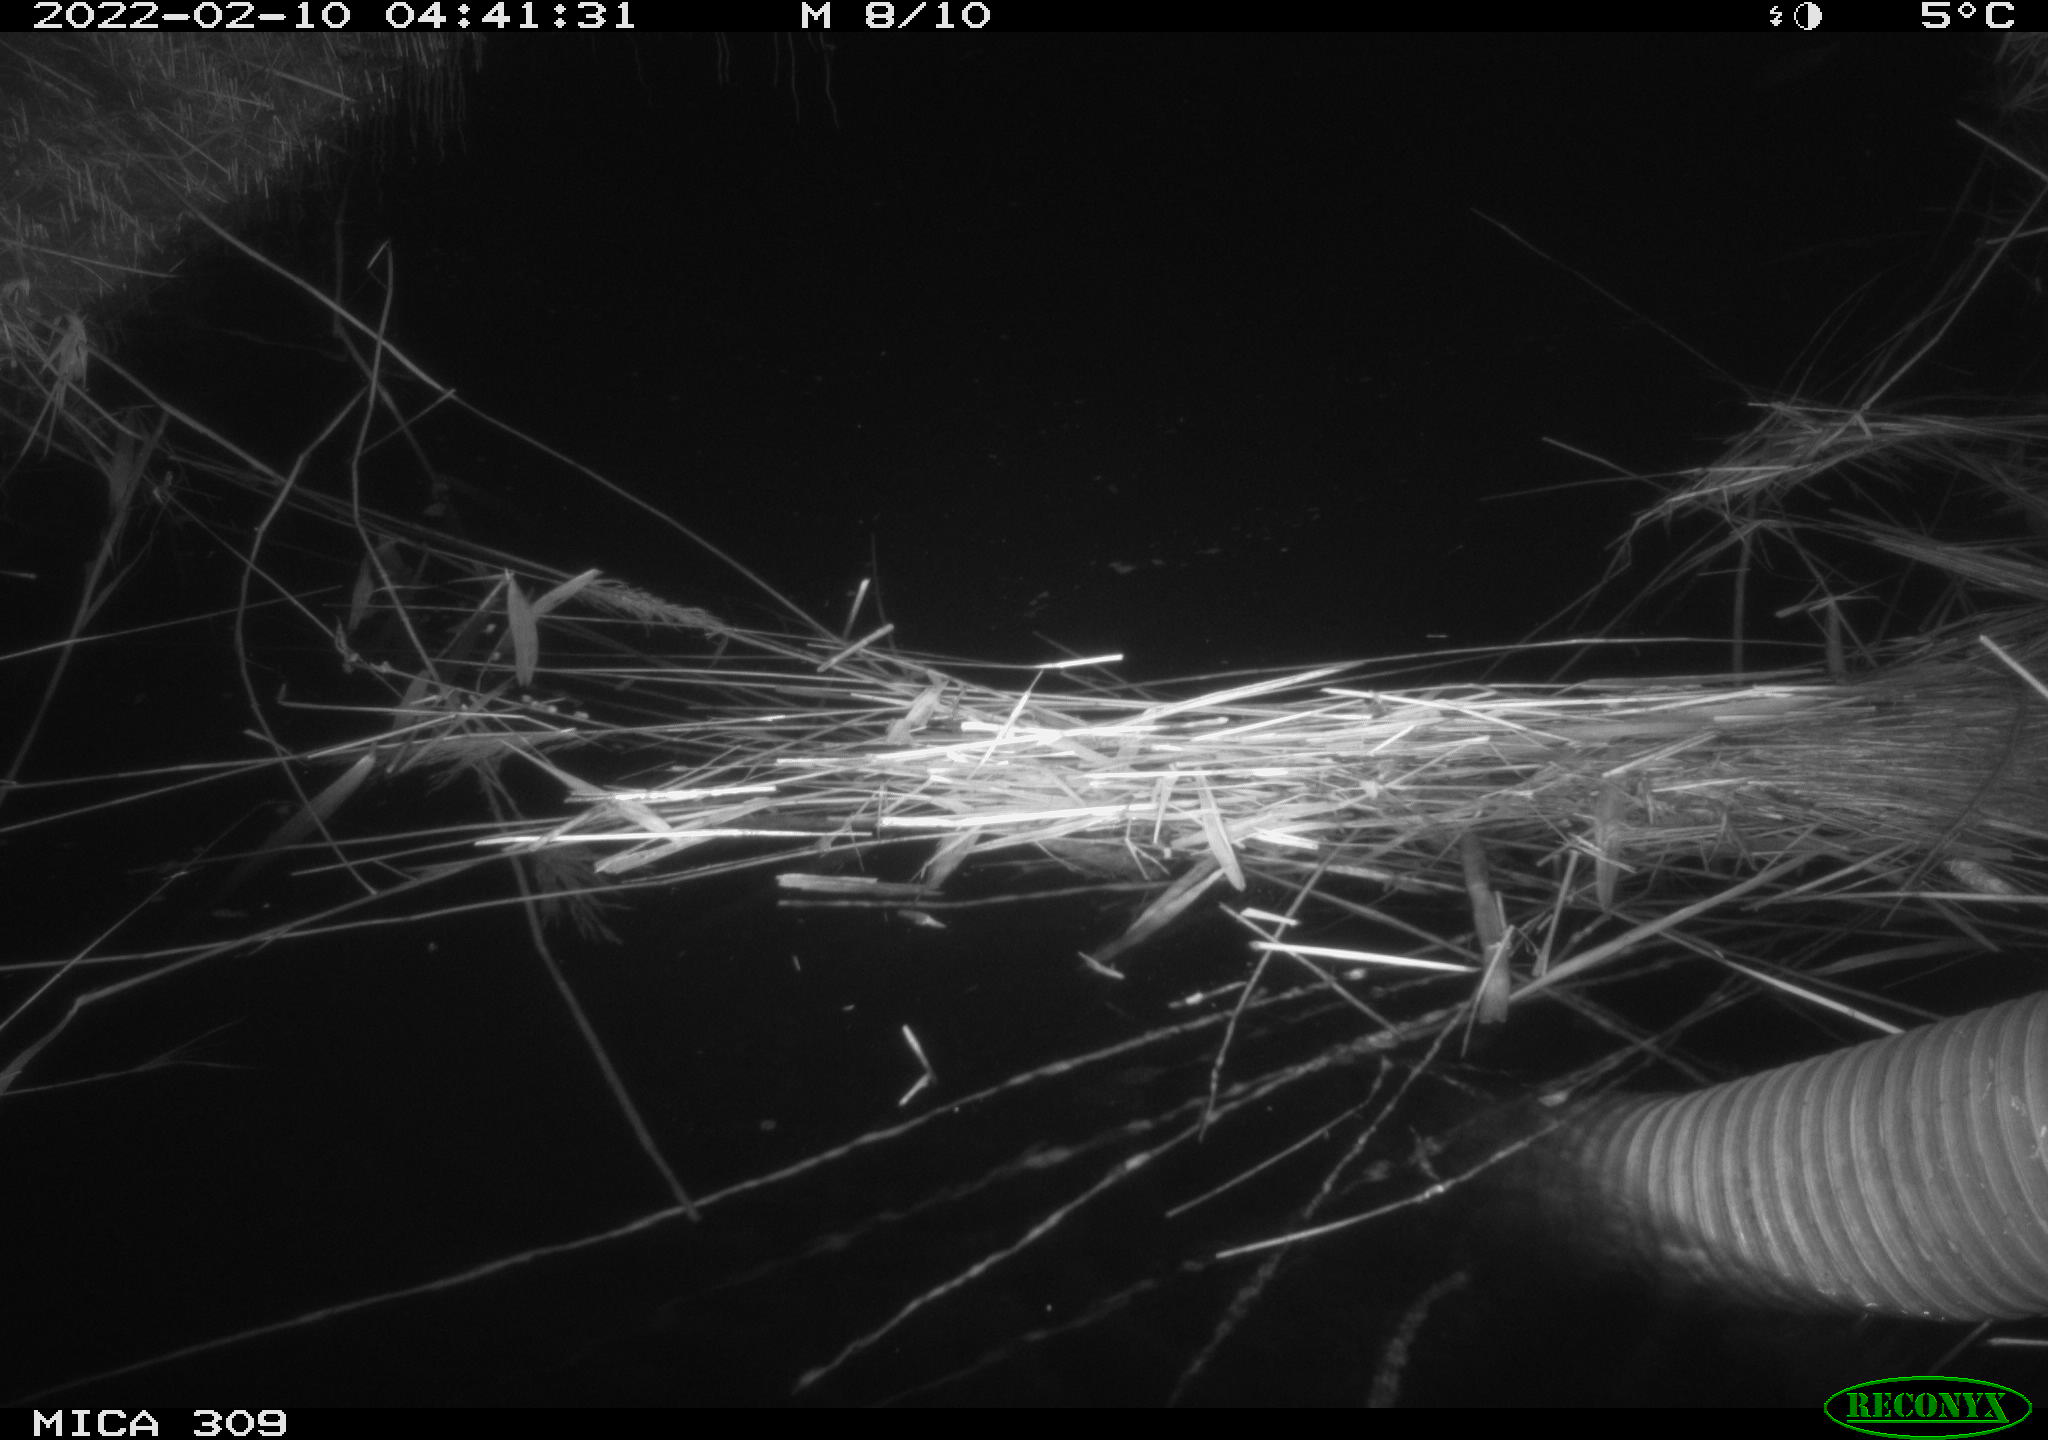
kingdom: Animalia
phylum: Chordata
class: Mammalia
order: Rodentia
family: Cricetidae
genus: Ondatra
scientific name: Ondatra zibethicus
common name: Muskrat
